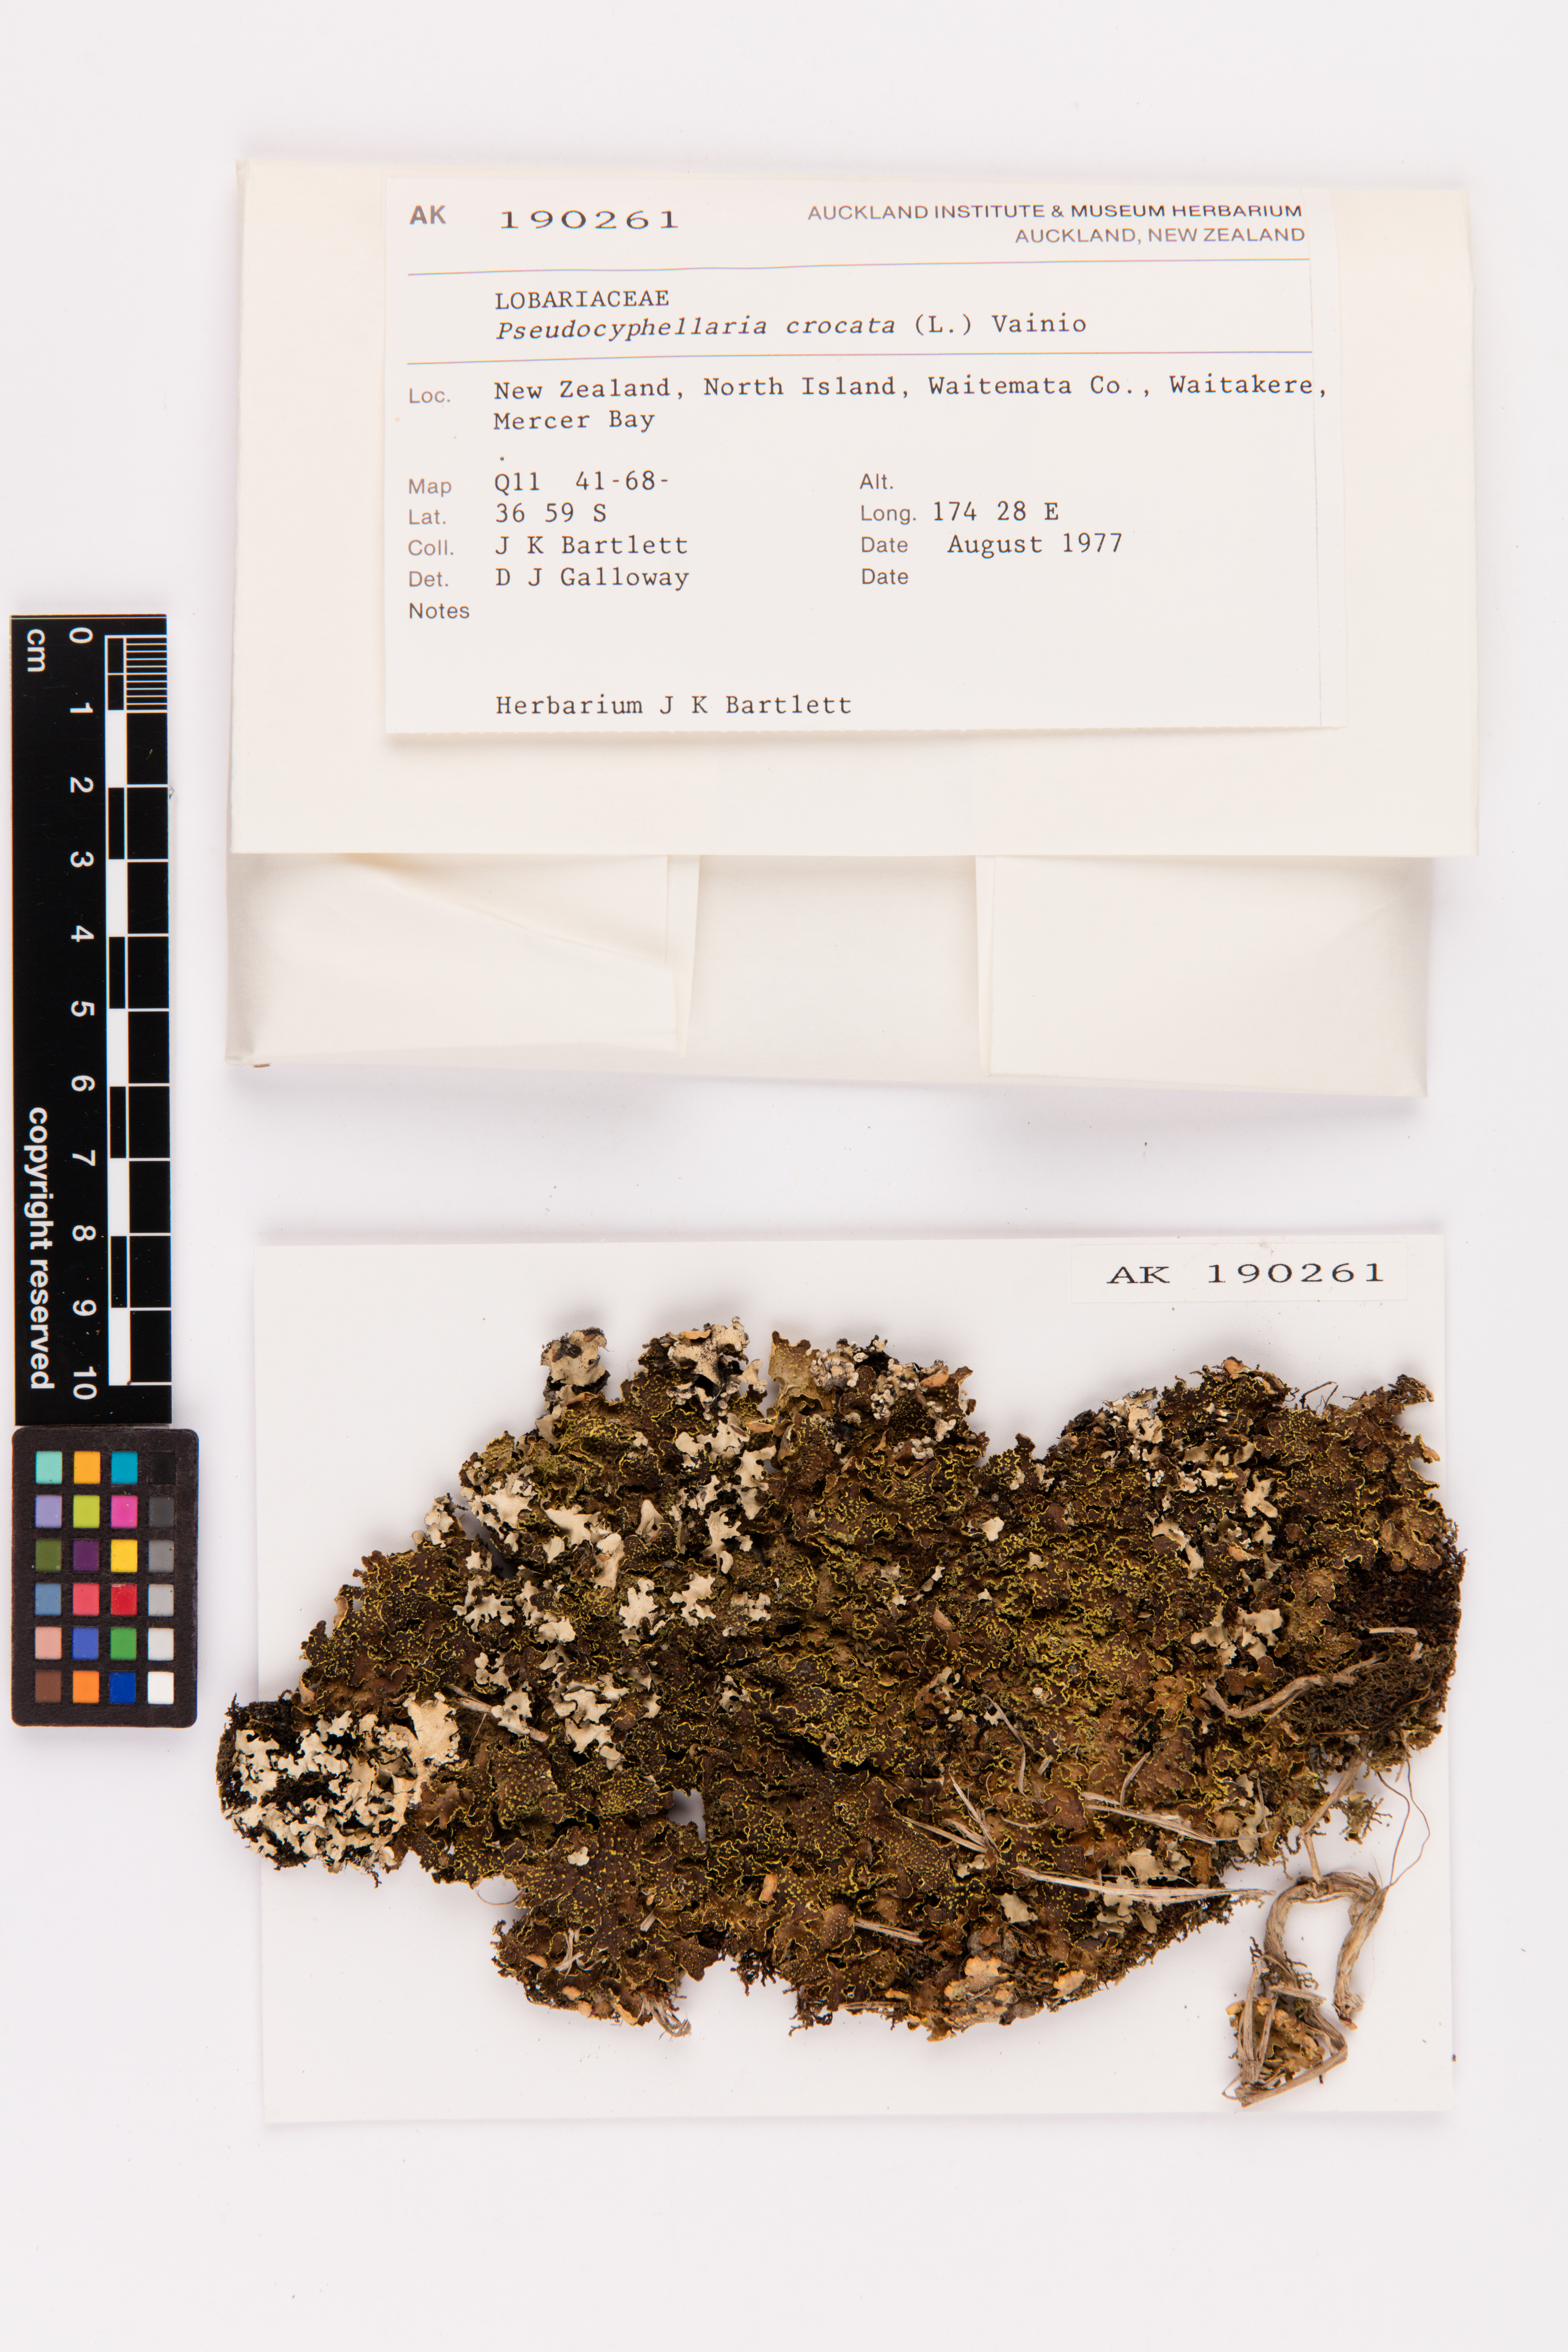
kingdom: Fungi
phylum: Ascomycota
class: Lecanoromycetes
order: Peltigerales
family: Lobariaceae
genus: Pseudocyphellaria
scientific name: Pseudocyphellaria crocata
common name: Golden specklebelly
